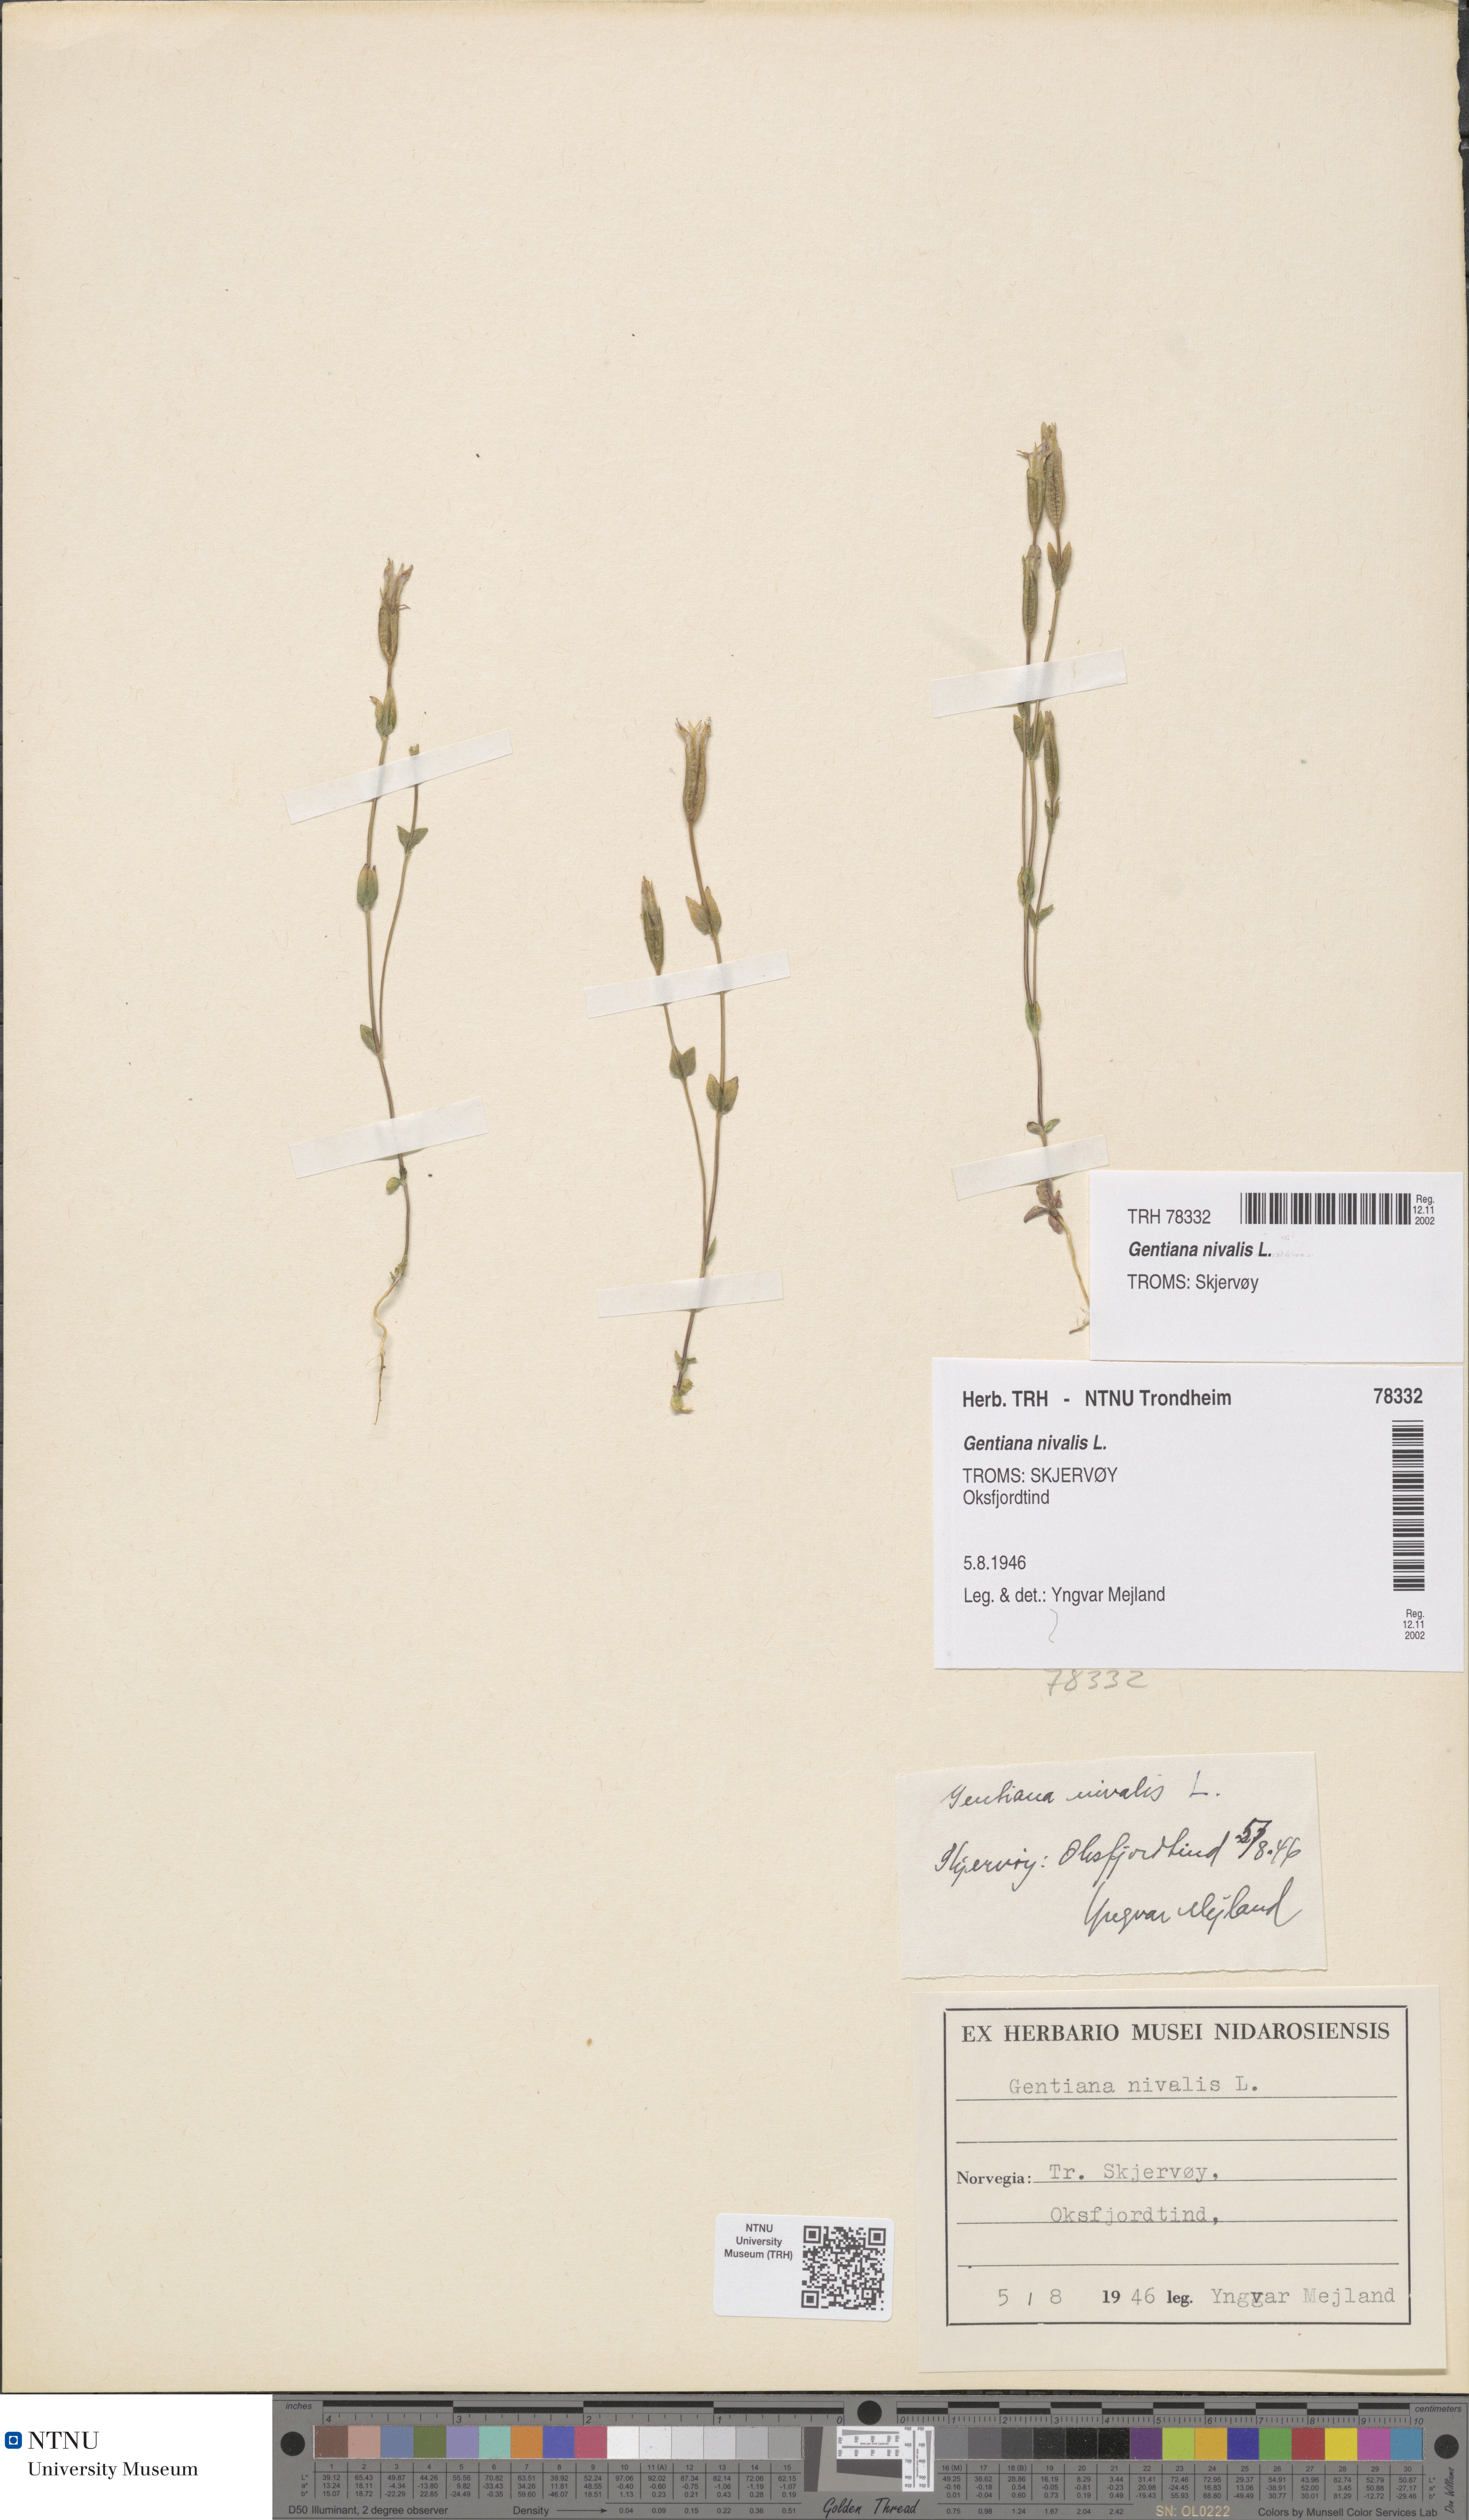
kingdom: Plantae
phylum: Tracheophyta
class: Magnoliopsida
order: Gentianales
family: Gentianaceae
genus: Gentiana
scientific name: Gentiana nivalis
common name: Alpine gentian
